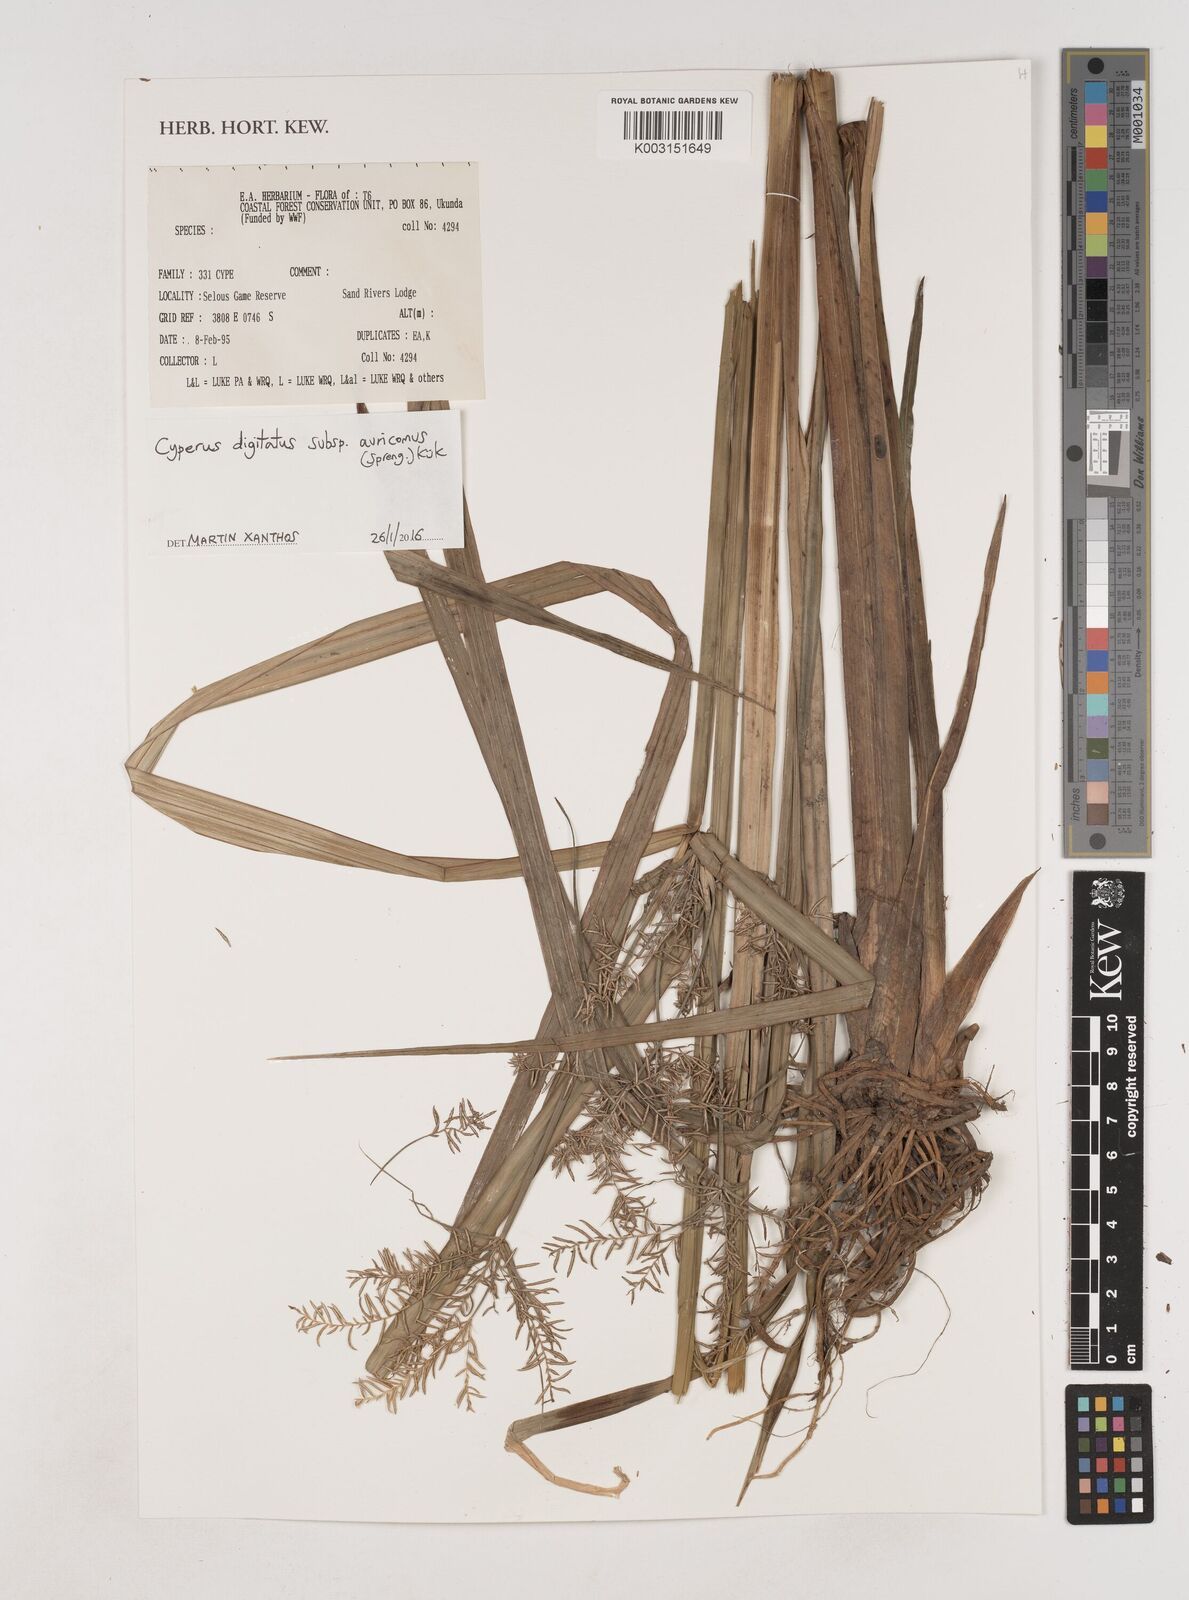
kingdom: Plantae
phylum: Tracheophyta
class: Liliopsida
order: Poales
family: Cyperaceae
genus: Cyperus
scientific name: Cyperus digitatus
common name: Finger flatsedge
